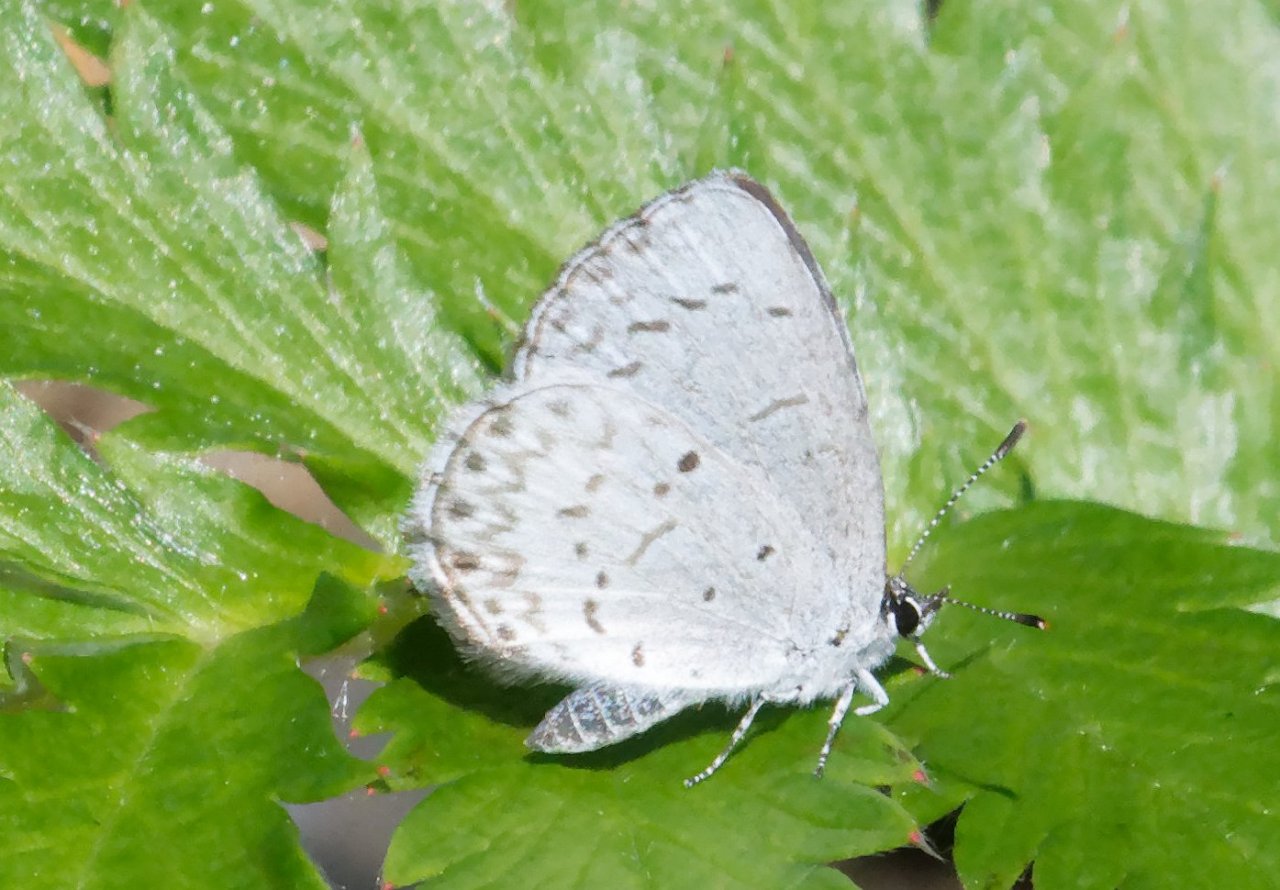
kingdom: Animalia
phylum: Arthropoda
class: Insecta
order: Lepidoptera
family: Lycaenidae
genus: Celastrina
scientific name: Celastrina
